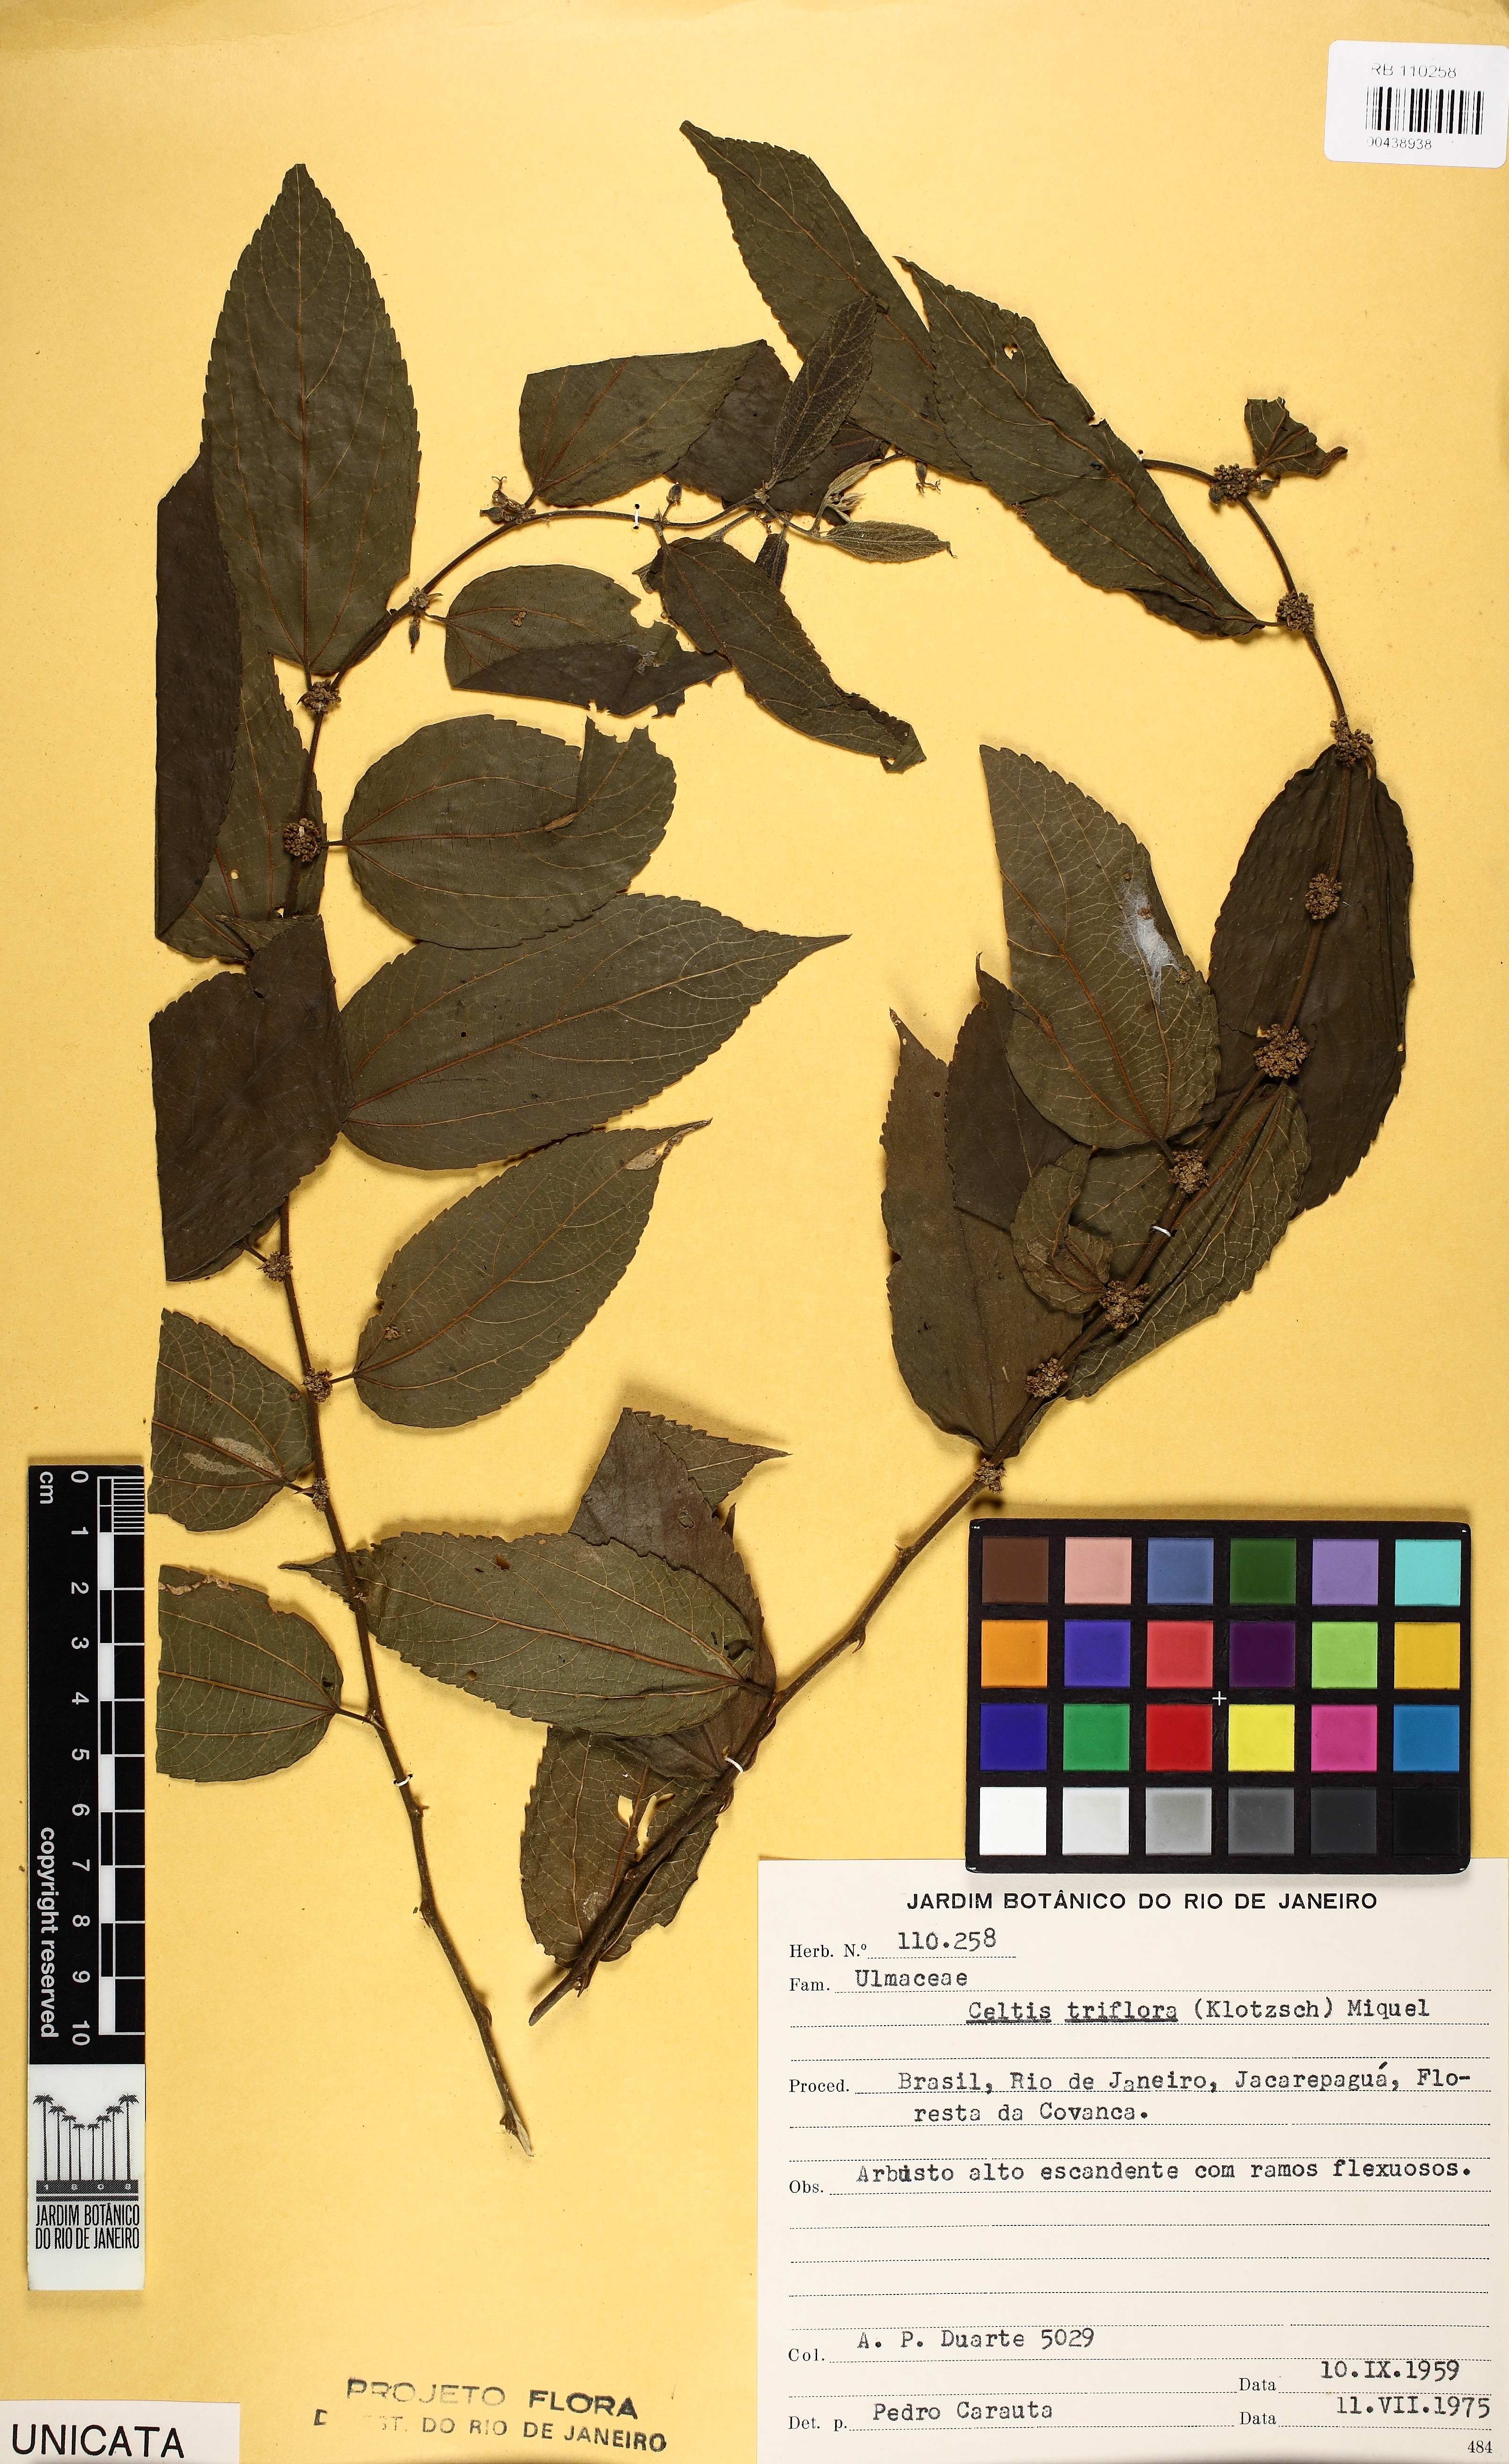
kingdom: Plantae
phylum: Tracheophyta
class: Magnoliopsida
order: Rosales
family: Cannabaceae
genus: Celtis
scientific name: Celtis iguanaea
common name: Iguana hackberry
